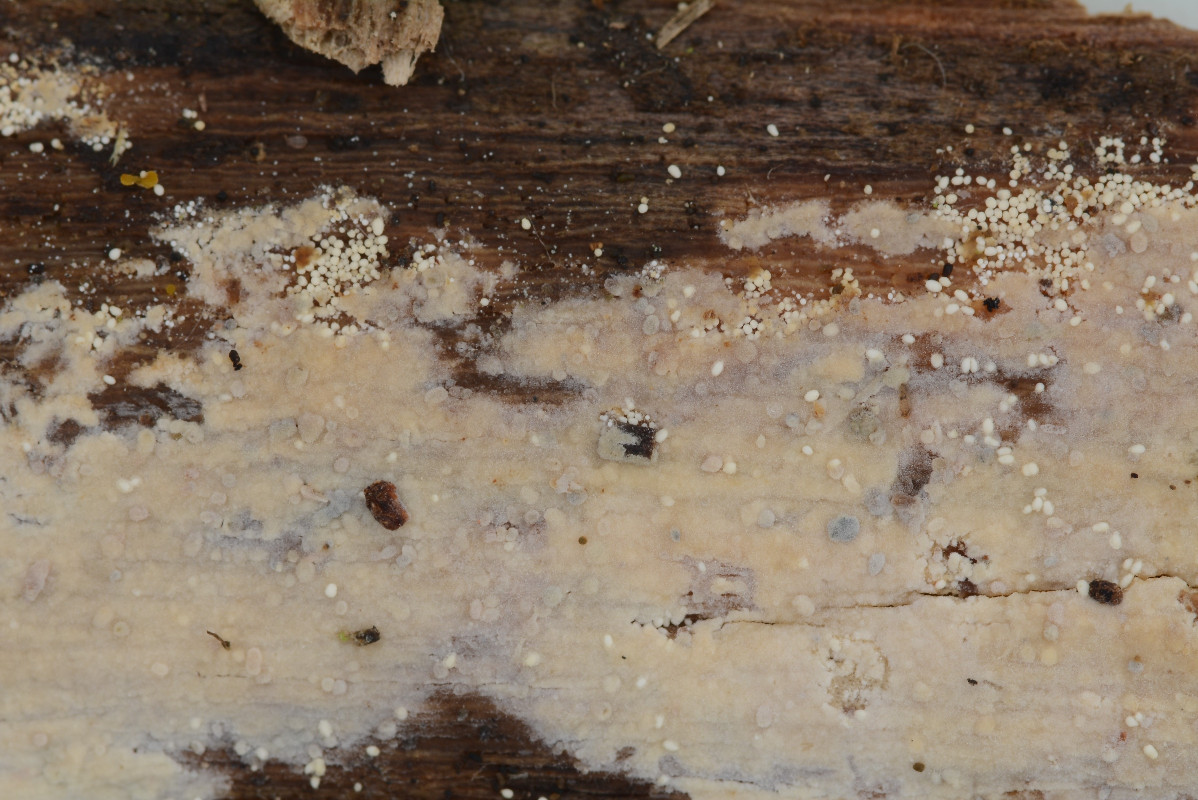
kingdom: Fungi
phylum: Basidiomycota
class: Agaricomycetes
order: Polyporales
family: Meruliaceae
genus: Bulbillomyces
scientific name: Bulbillomyces farinosus
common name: æg-kalkskind
